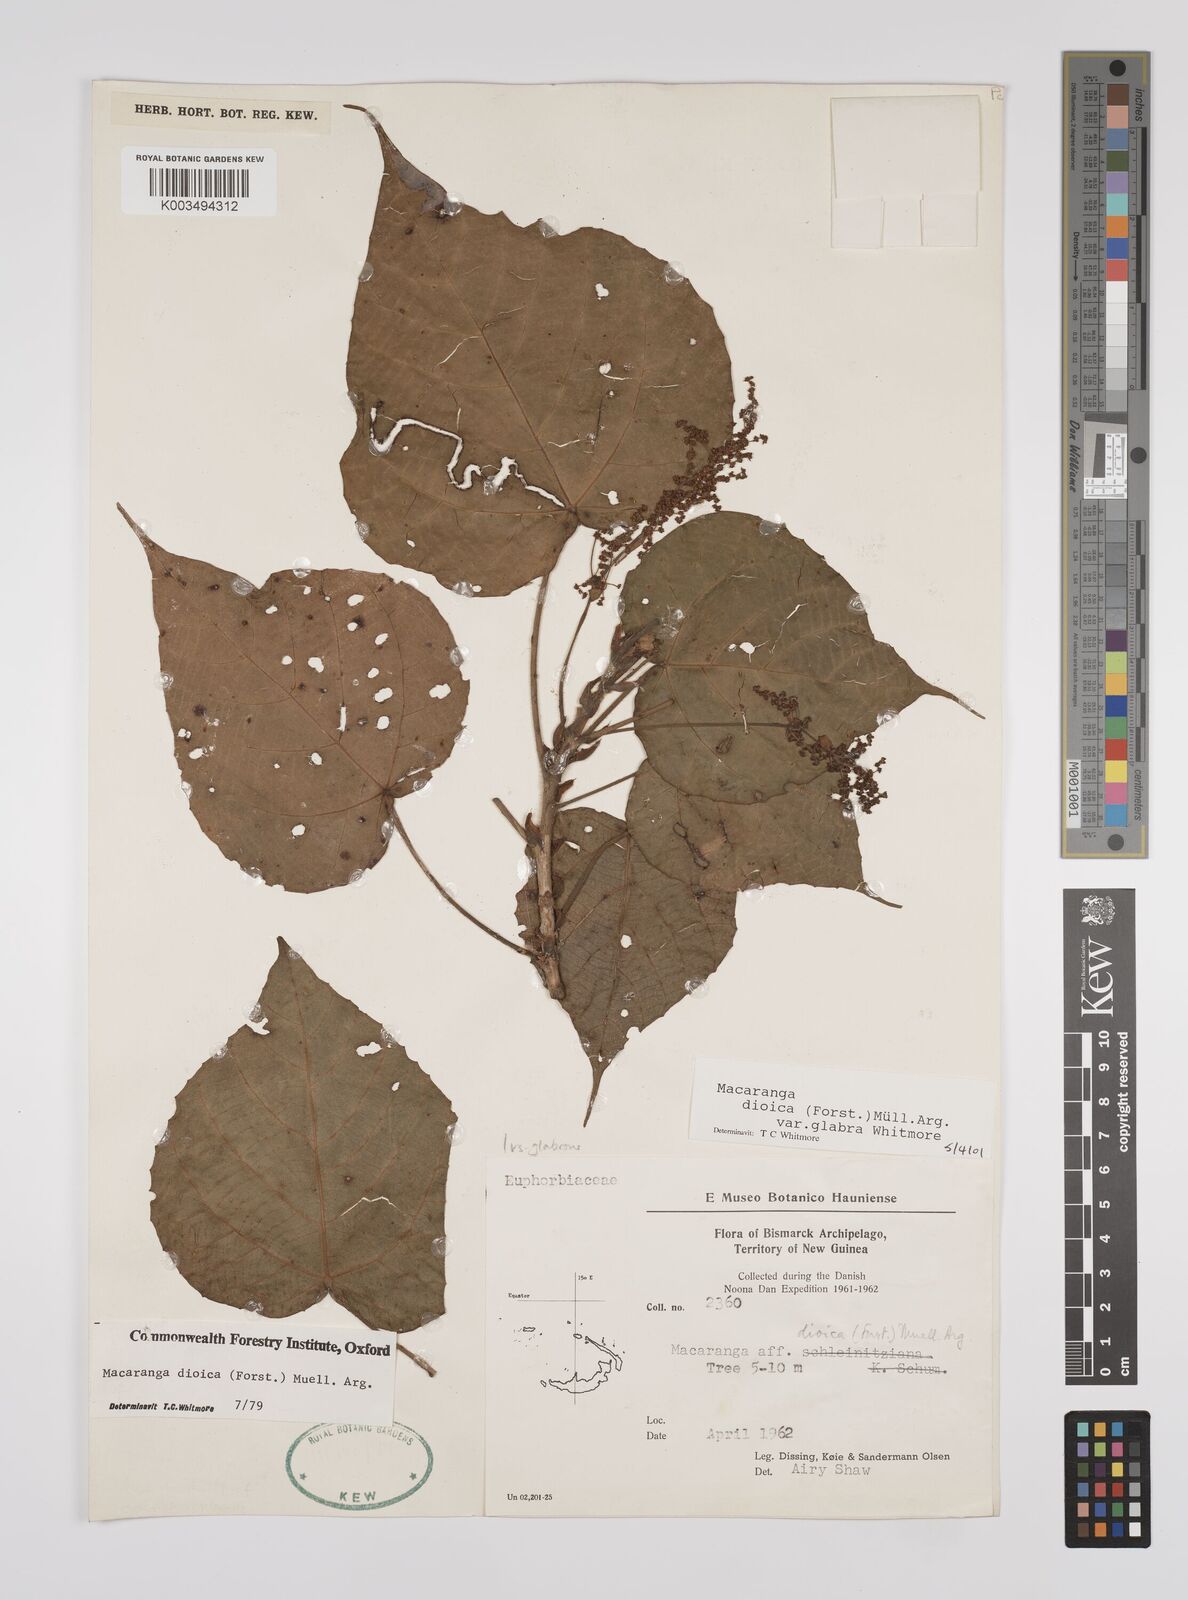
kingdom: Plantae
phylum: Tracheophyta
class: Magnoliopsida
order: Malpighiales
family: Euphorbiaceae
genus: Macaranga
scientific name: Macaranga dioica
